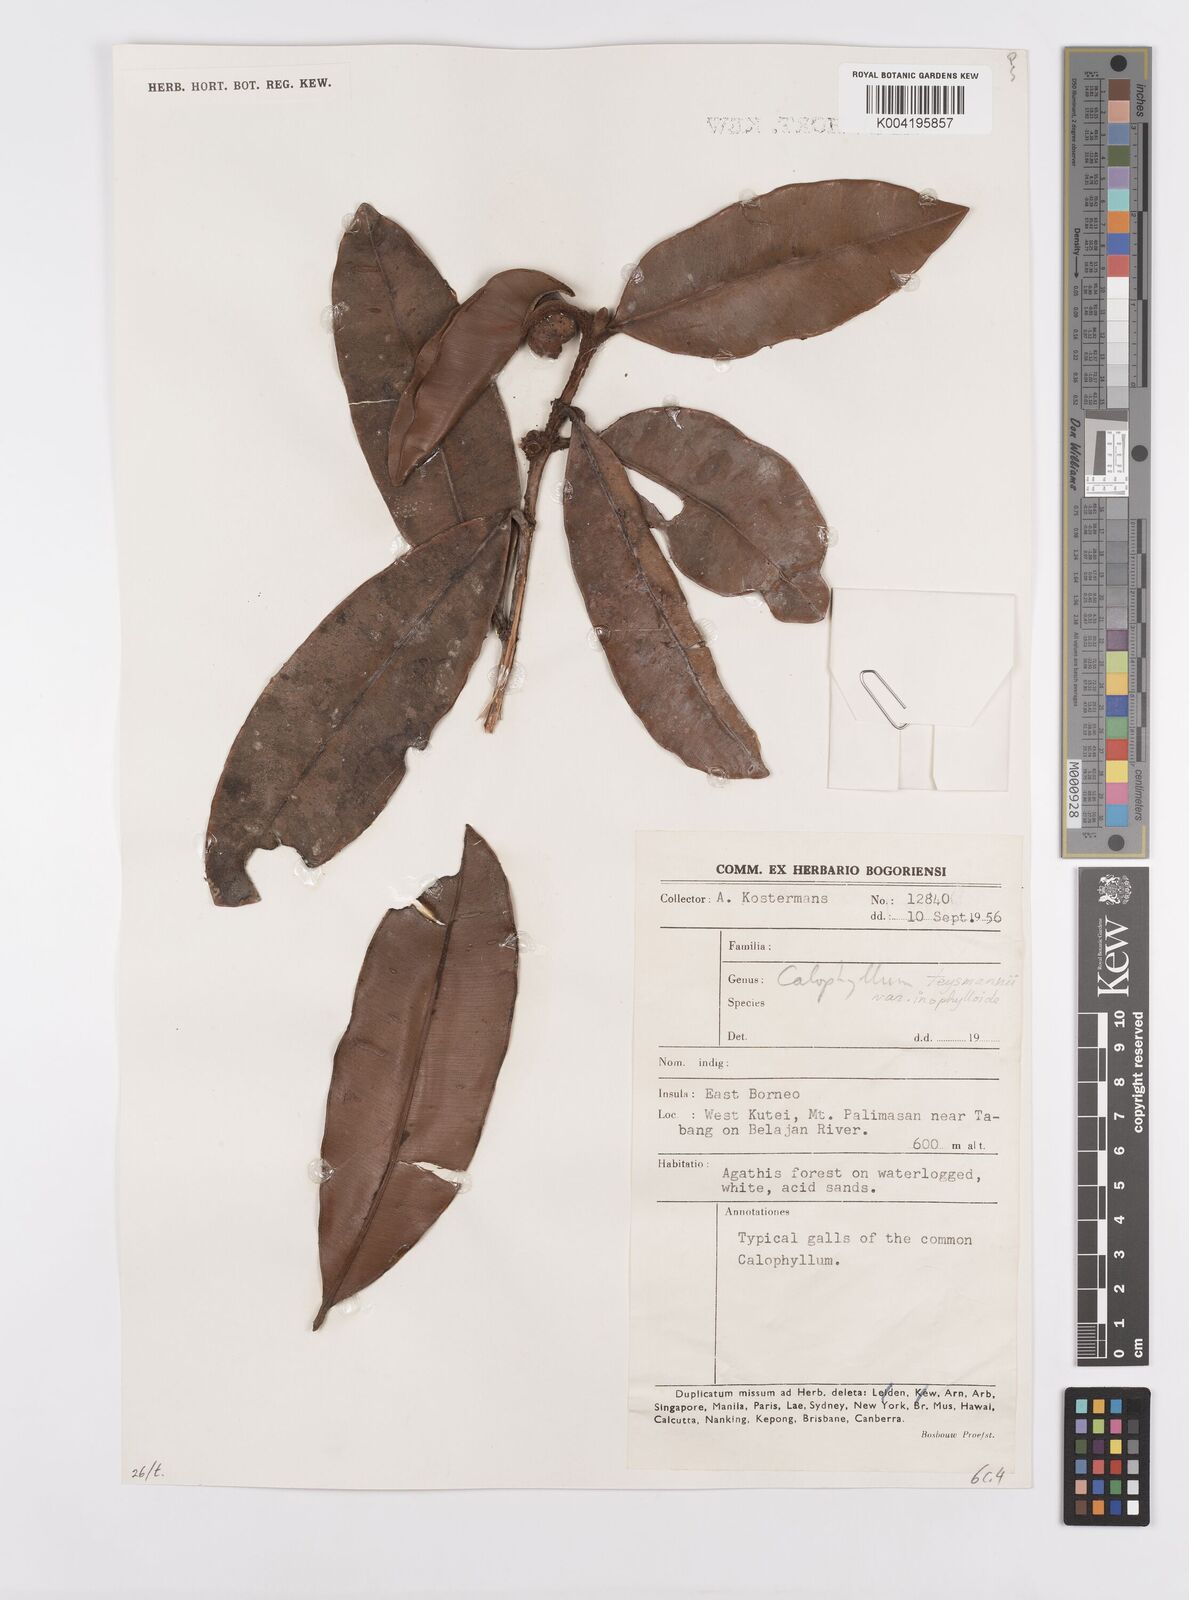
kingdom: Plantae
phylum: Tracheophyta
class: Magnoliopsida
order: Malpighiales
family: Calophyllaceae
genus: Calophyllum
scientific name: Calophyllum teysmannii
